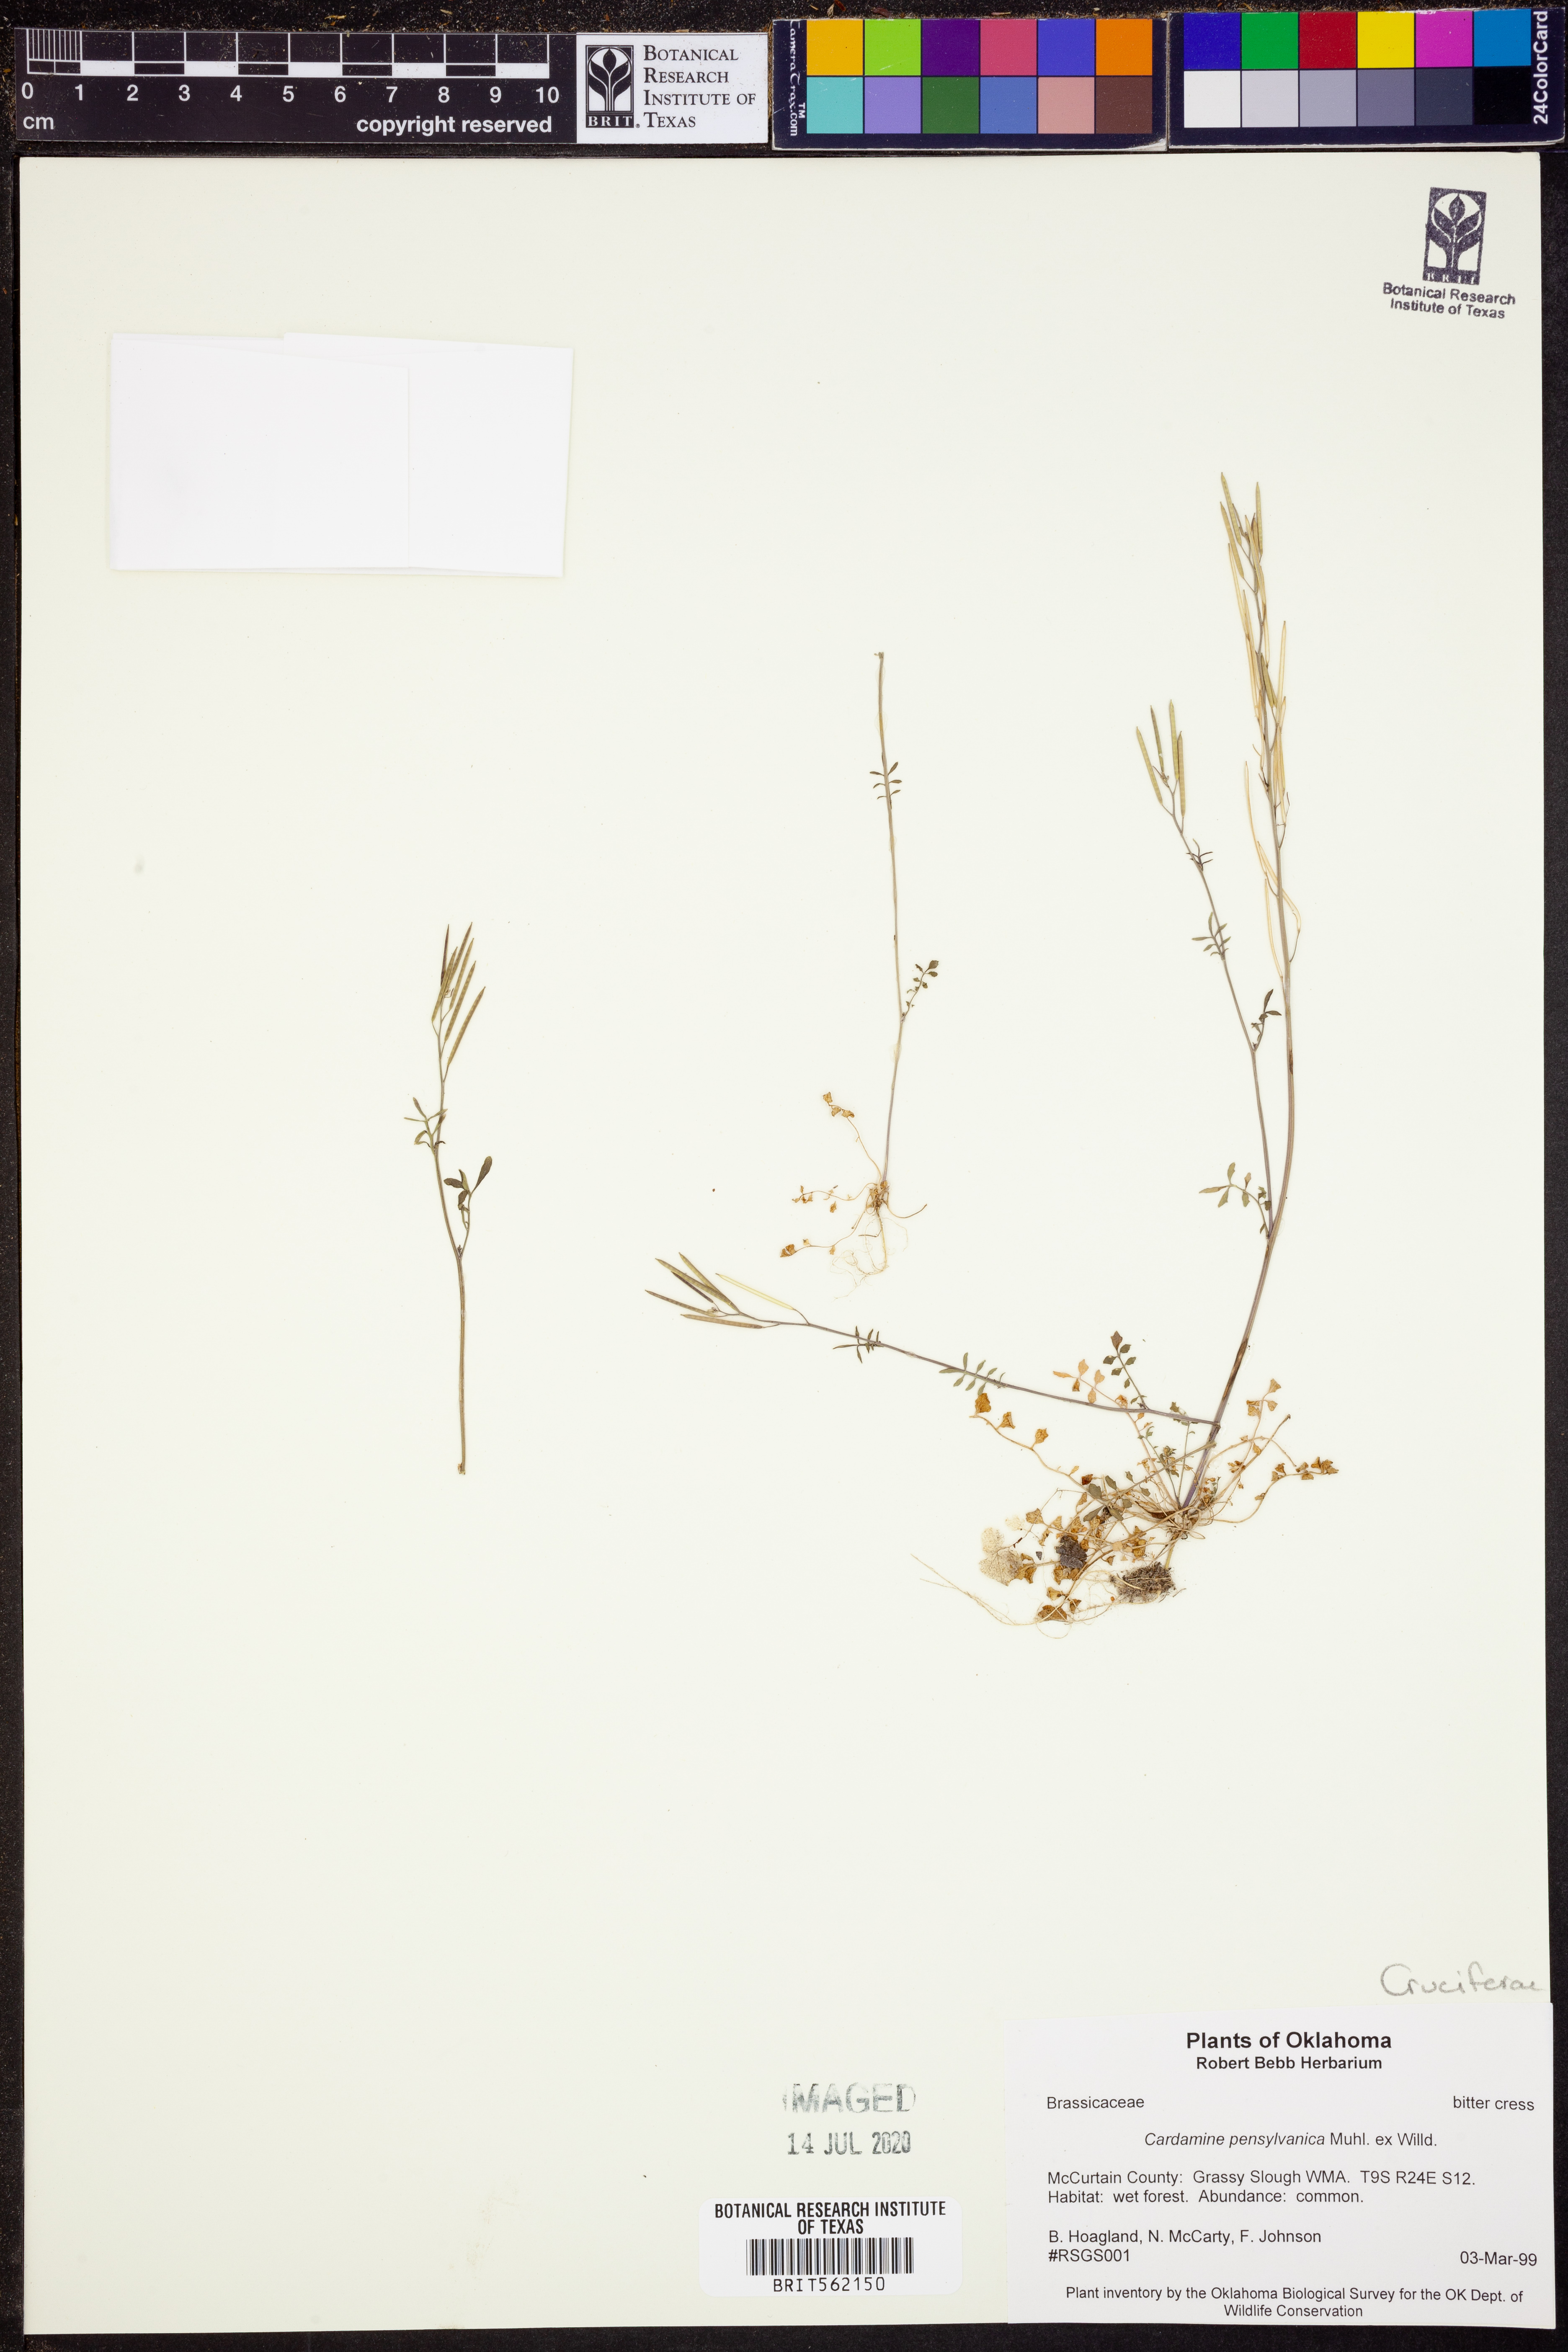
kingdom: Plantae
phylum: Tracheophyta
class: Magnoliopsida
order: Brassicales
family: Brassicaceae
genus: Cardamine
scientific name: Cardamine pensylvanica
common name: Pennsylvania bittercress
